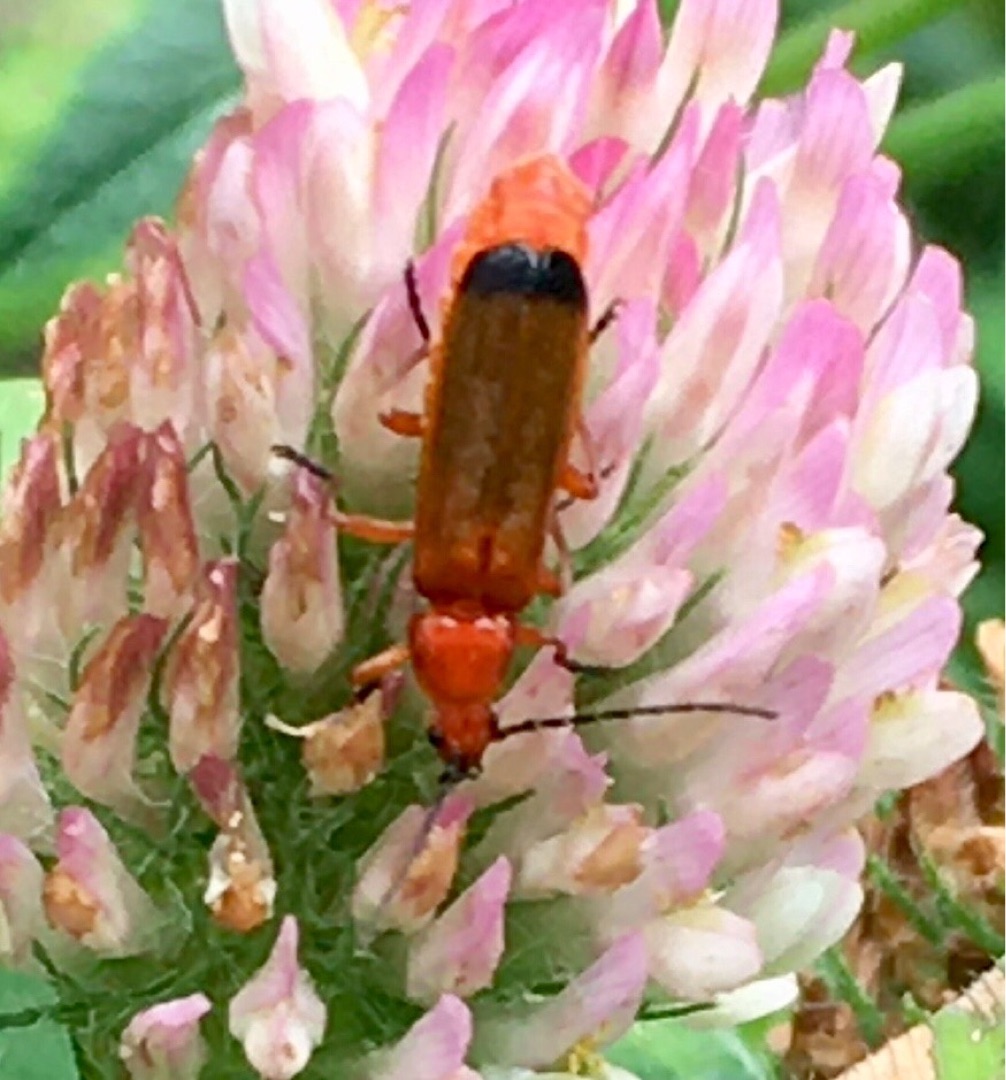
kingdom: Animalia
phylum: Arthropoda
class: Insecta
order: Coleoptera
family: Cantharidae
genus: Rhagonycha
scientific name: Rhagonycha fulva
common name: Præstebille
